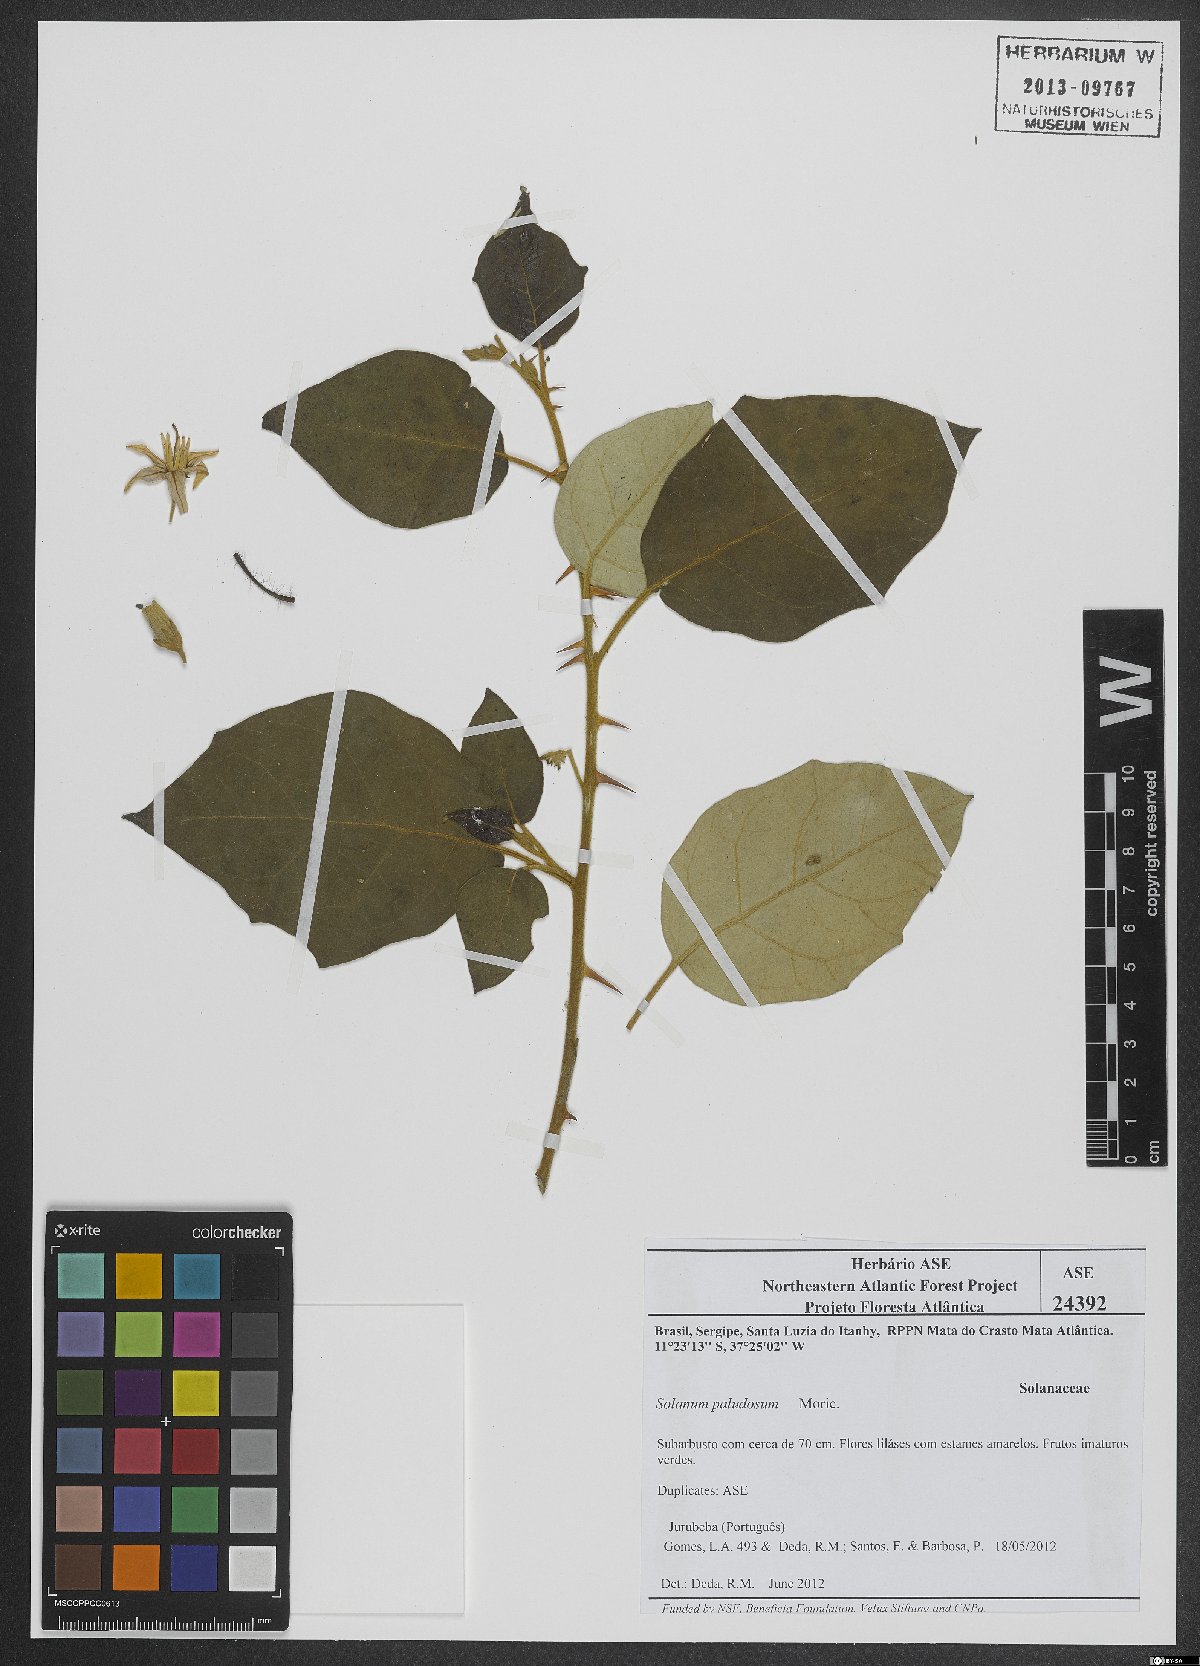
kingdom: Plantae
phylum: Tracheophyta
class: Magnoliopsida
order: Solanales
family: Solanaceae
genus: Solanum
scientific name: Solanum paludosum
